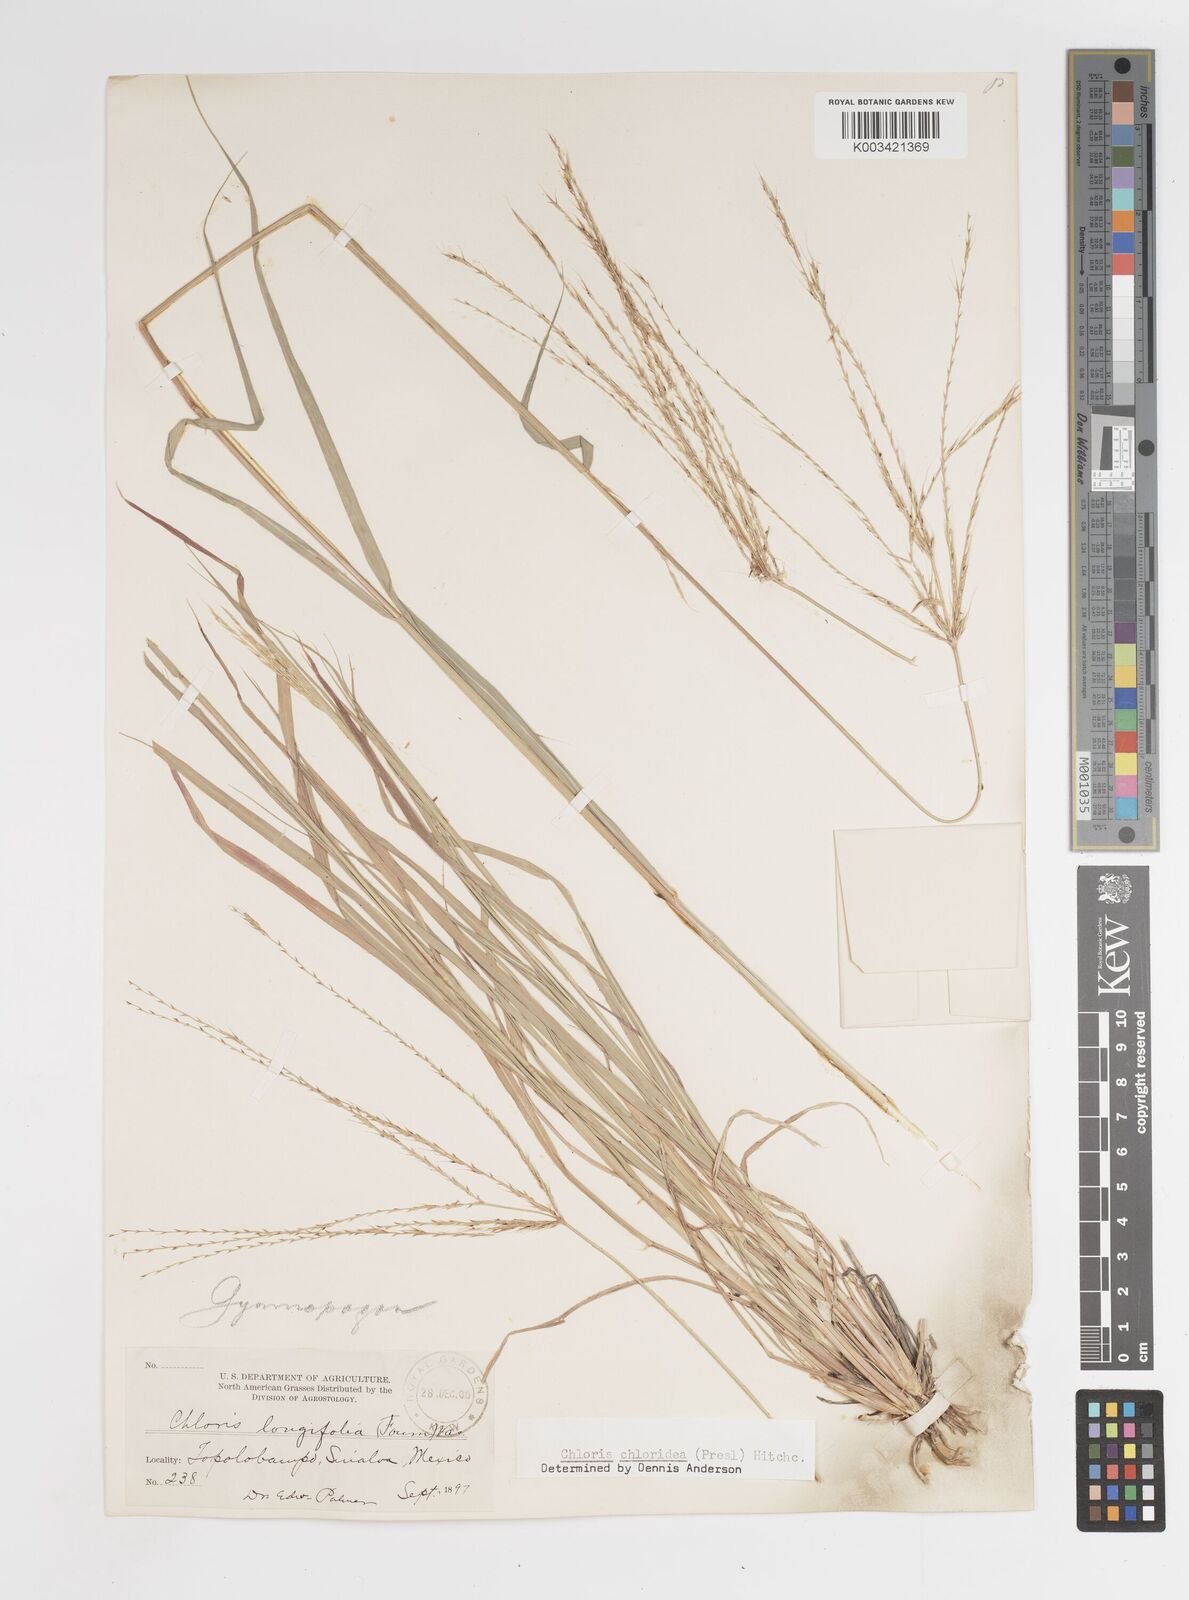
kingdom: Plantae
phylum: Tracheophyta
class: Liliopsida
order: Poales
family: Poaceae
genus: Tetrapogon
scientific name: Tetrapogon chlorideus
